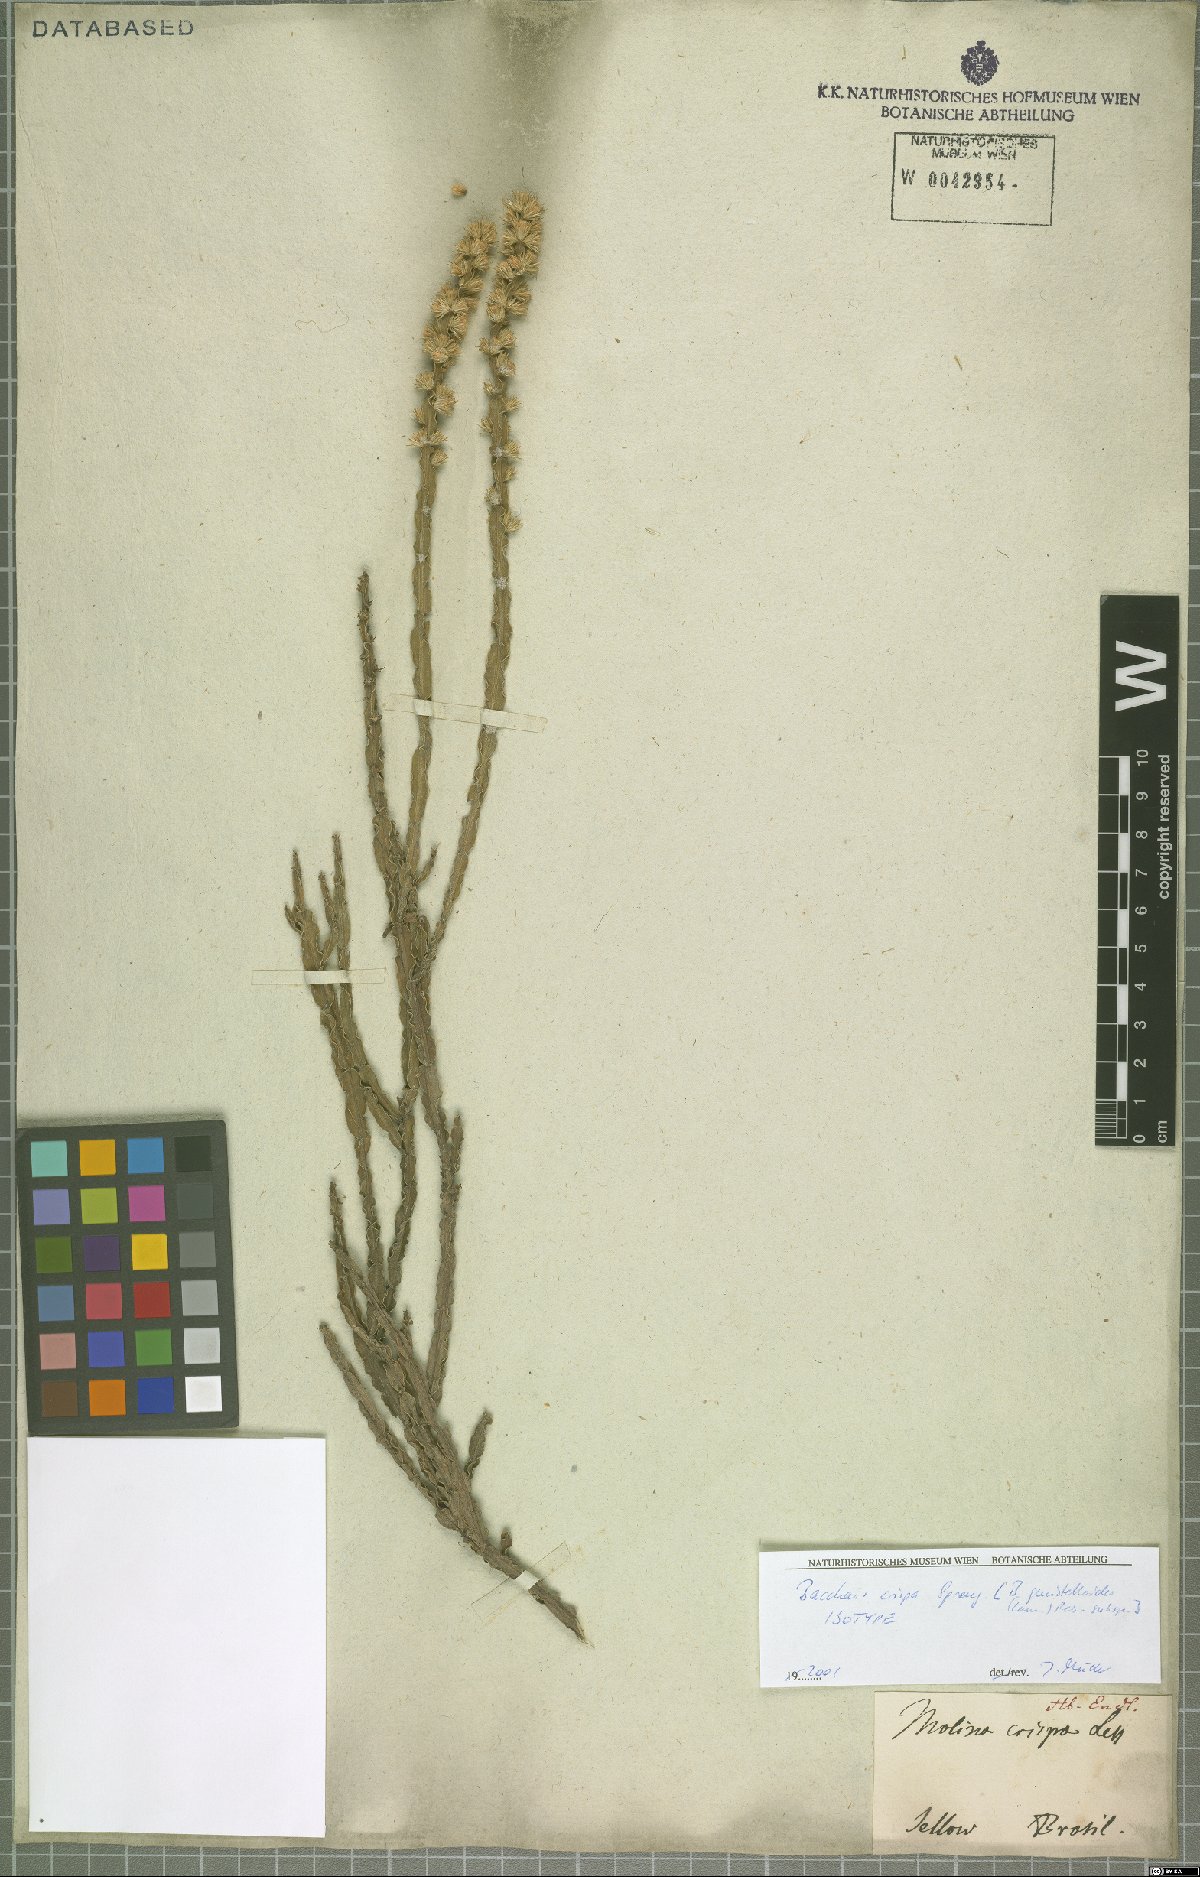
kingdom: Plantae
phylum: Tracheophyta
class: Magnoliopsida
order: Asterales
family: Asteraceae
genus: Baccharis
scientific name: Baccharis crispa
